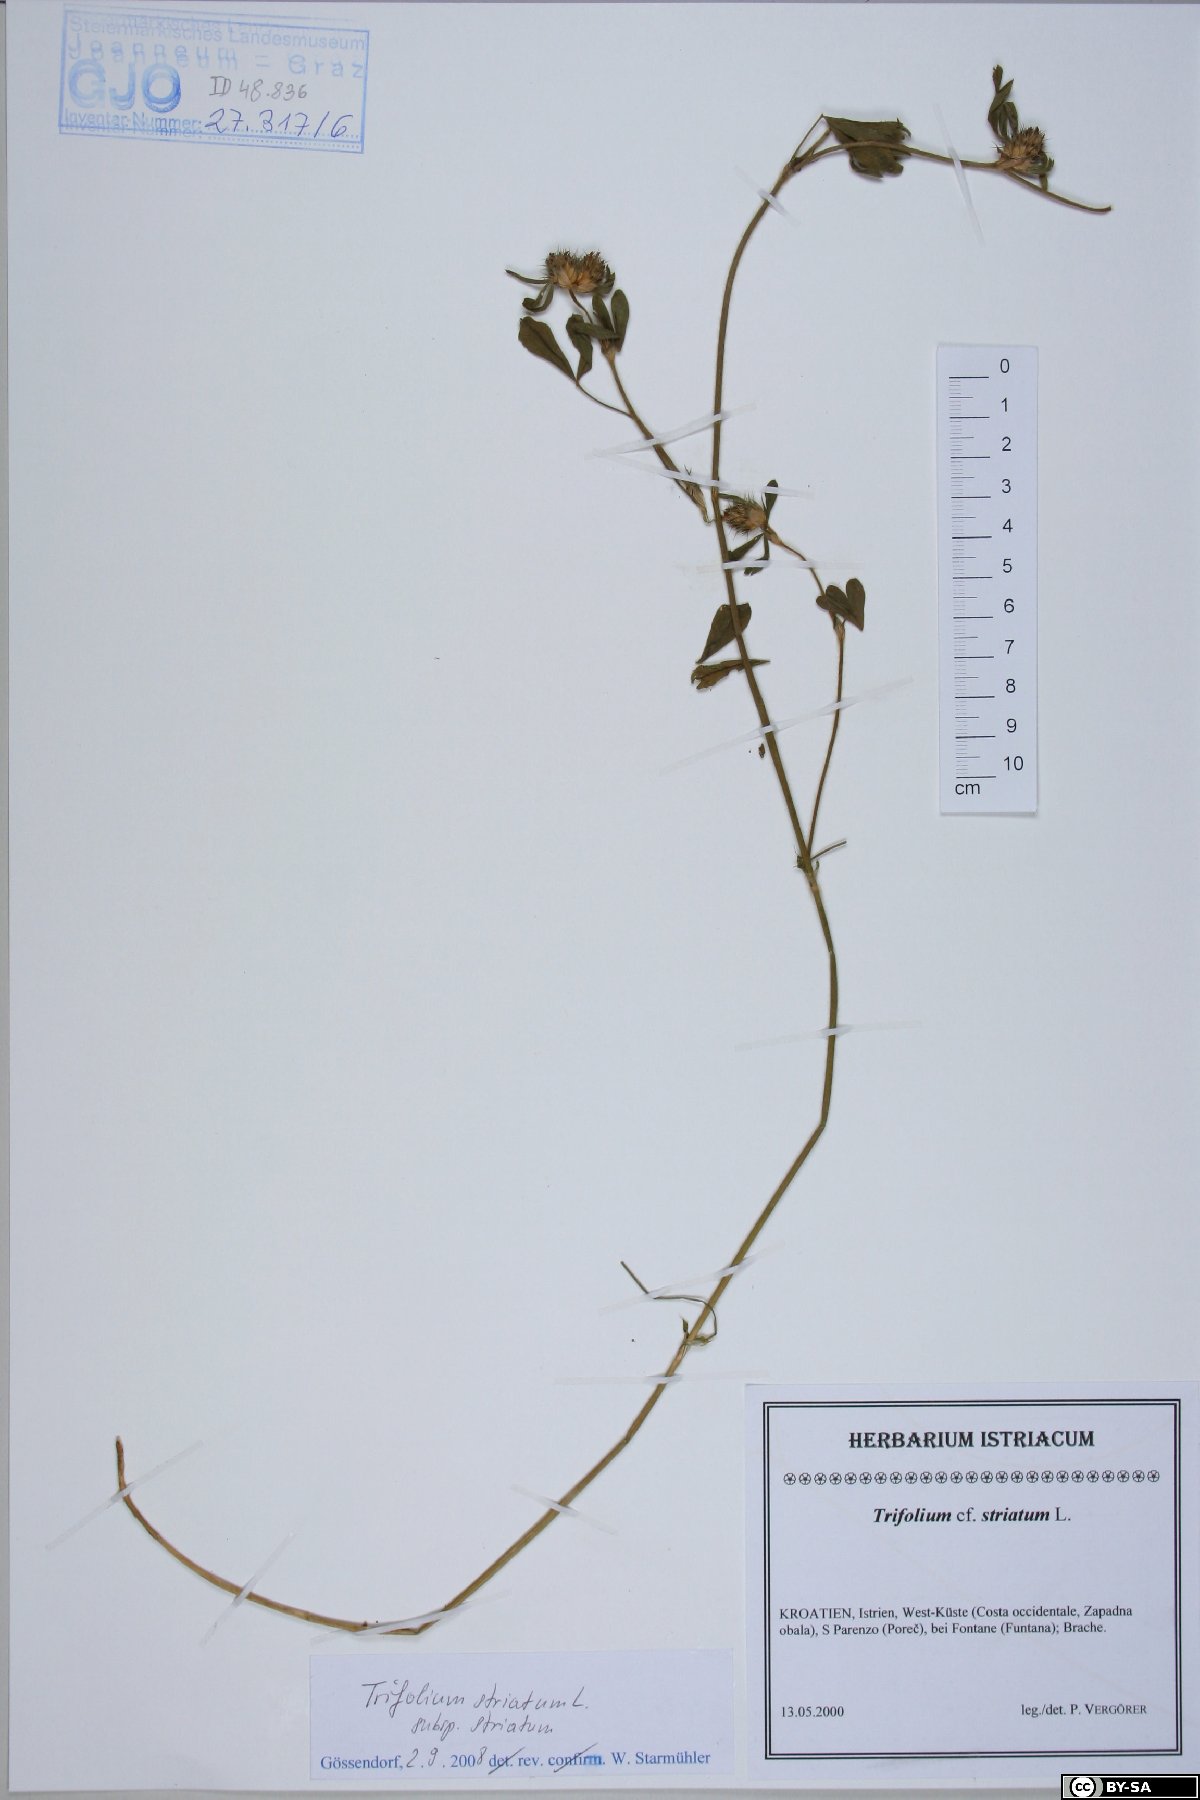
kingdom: Plantae
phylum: Tracheophyta
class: Magnoliopsida
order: Fabales
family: Fabaceae
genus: Trifolium
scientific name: Trifolium striatum
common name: Knotted clover
